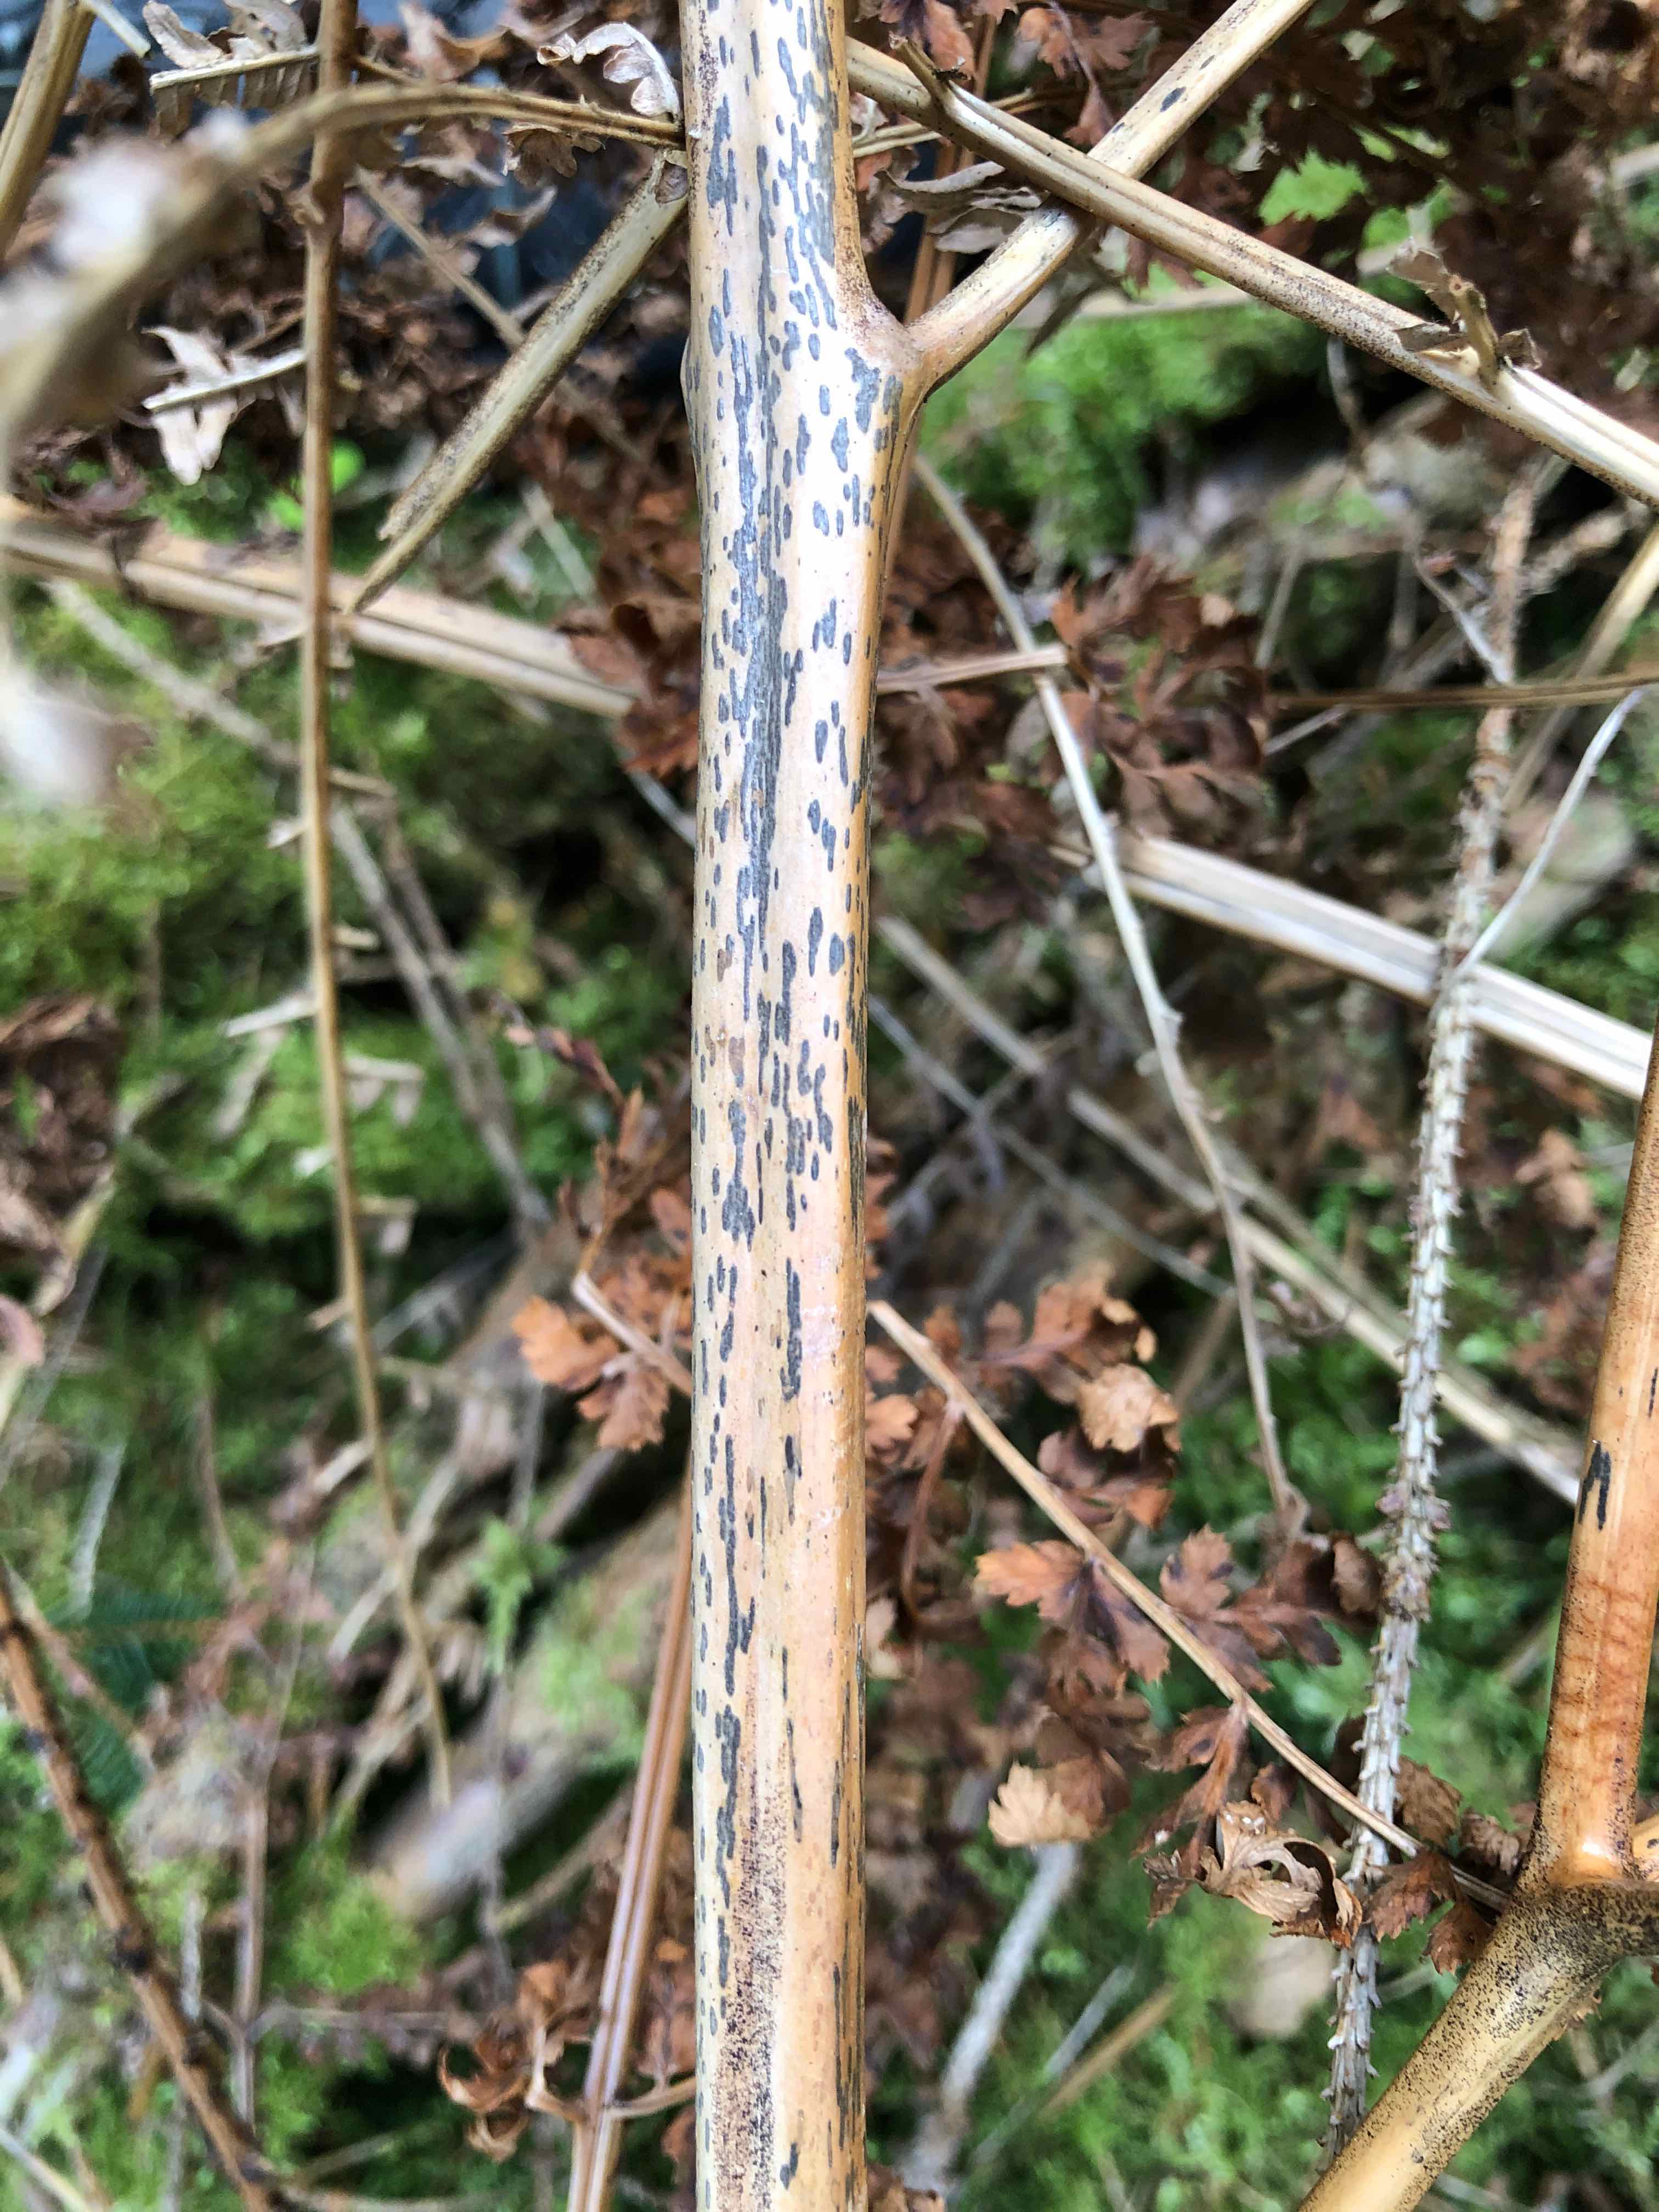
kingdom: Fungi
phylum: Ascomycota
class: Dothideomycetes
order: Pleosporales
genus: Rhopographus
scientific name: Rhopographus filicinus
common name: Bracken map
